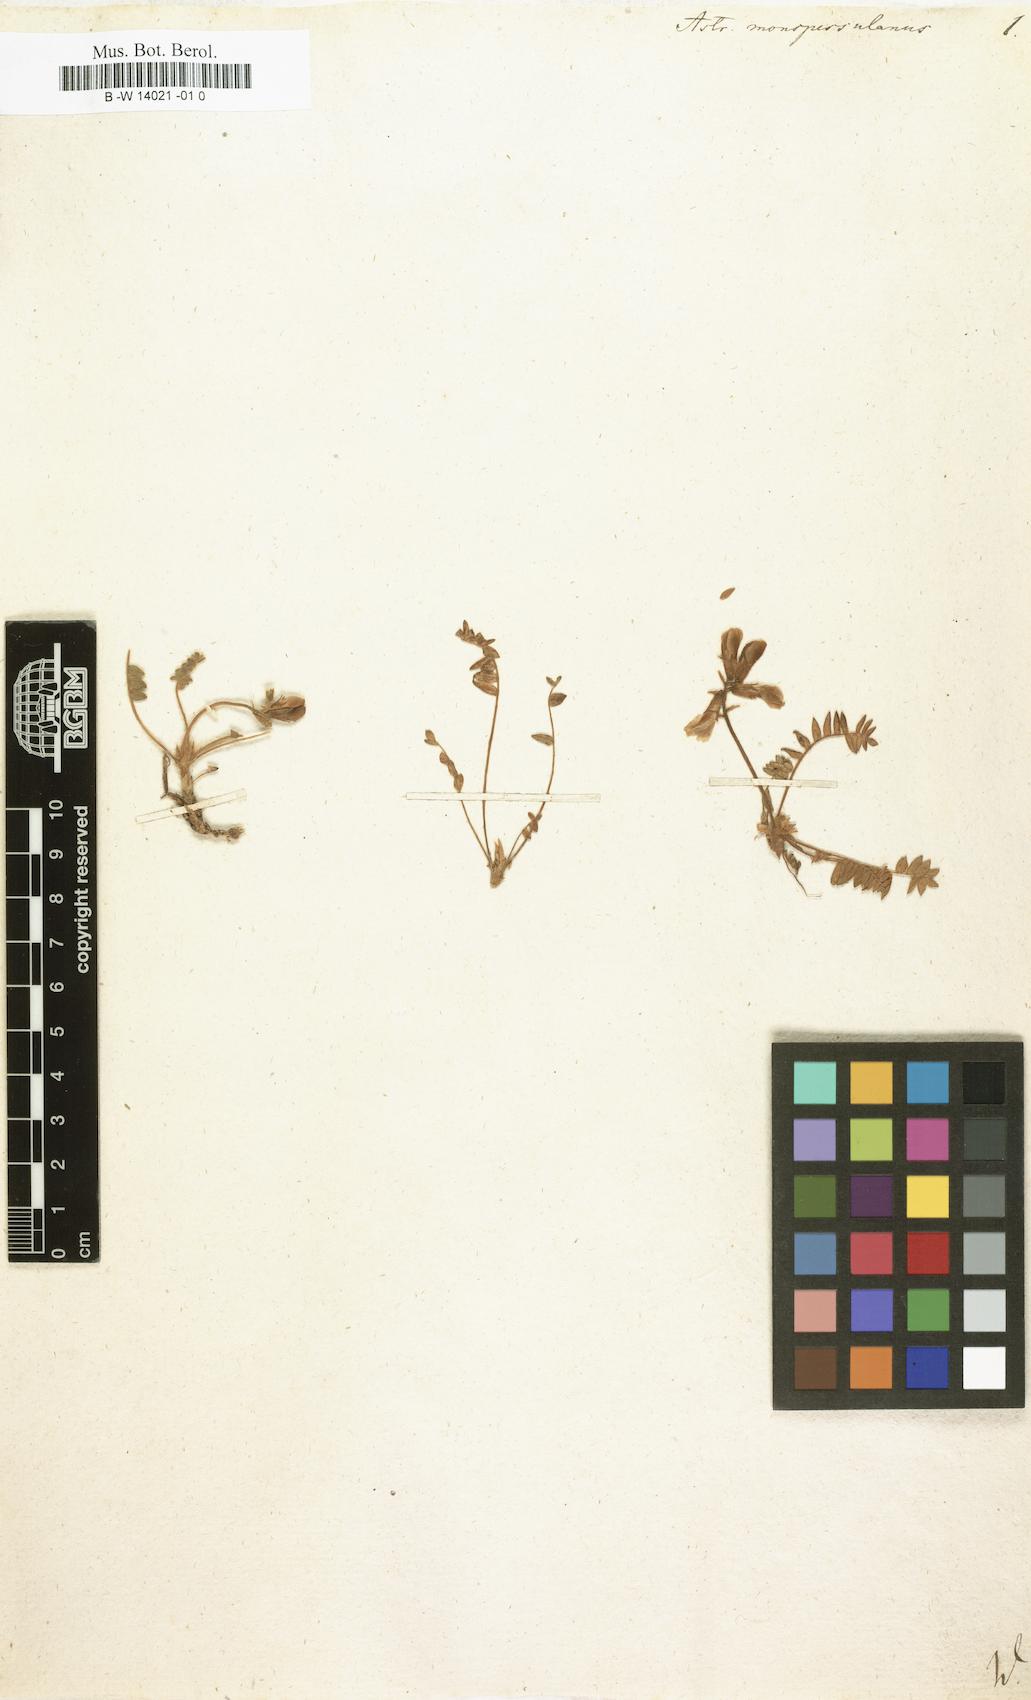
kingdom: Plantae
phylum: Tracheophyta
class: Magnoliopsida
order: Fabales
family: Fabaceae
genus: Astragalus
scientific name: Astragalus monspessulanus
